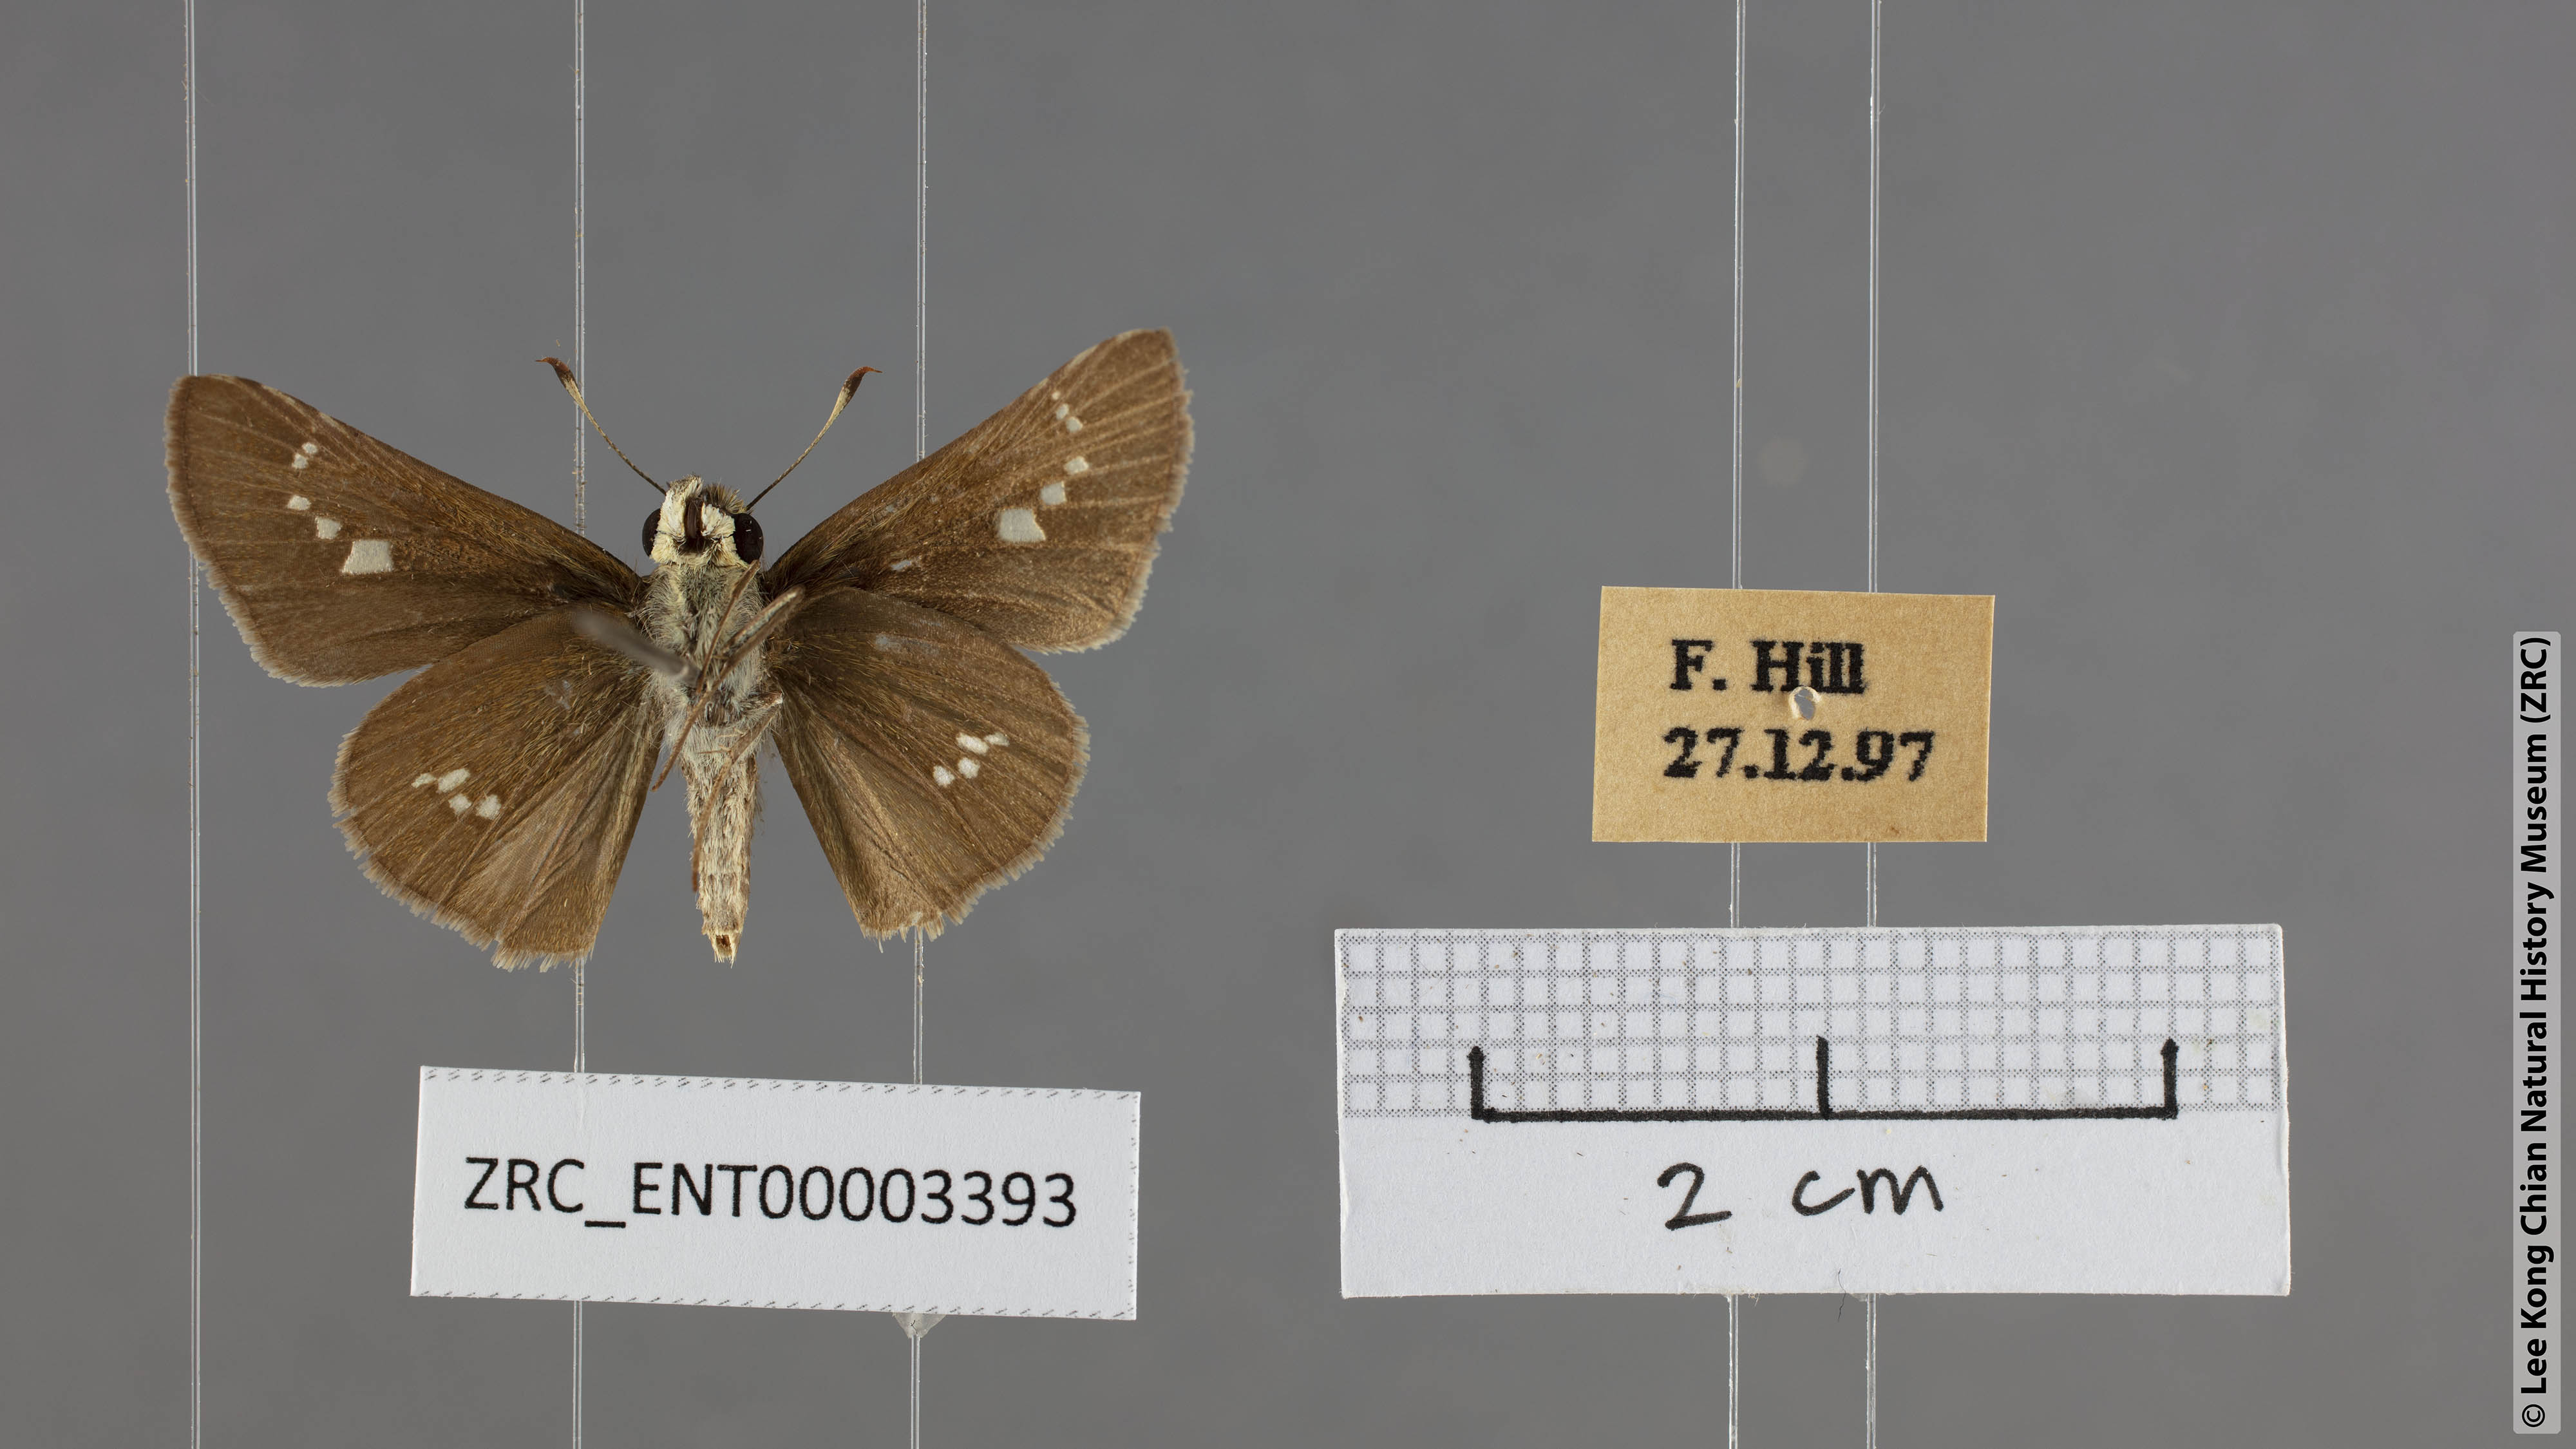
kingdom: Animalia
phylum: Arthropoda
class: Insecta
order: Lepidoptera
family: Hesperiidae
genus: Parnara
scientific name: Parnara ganga
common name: Continental swift
